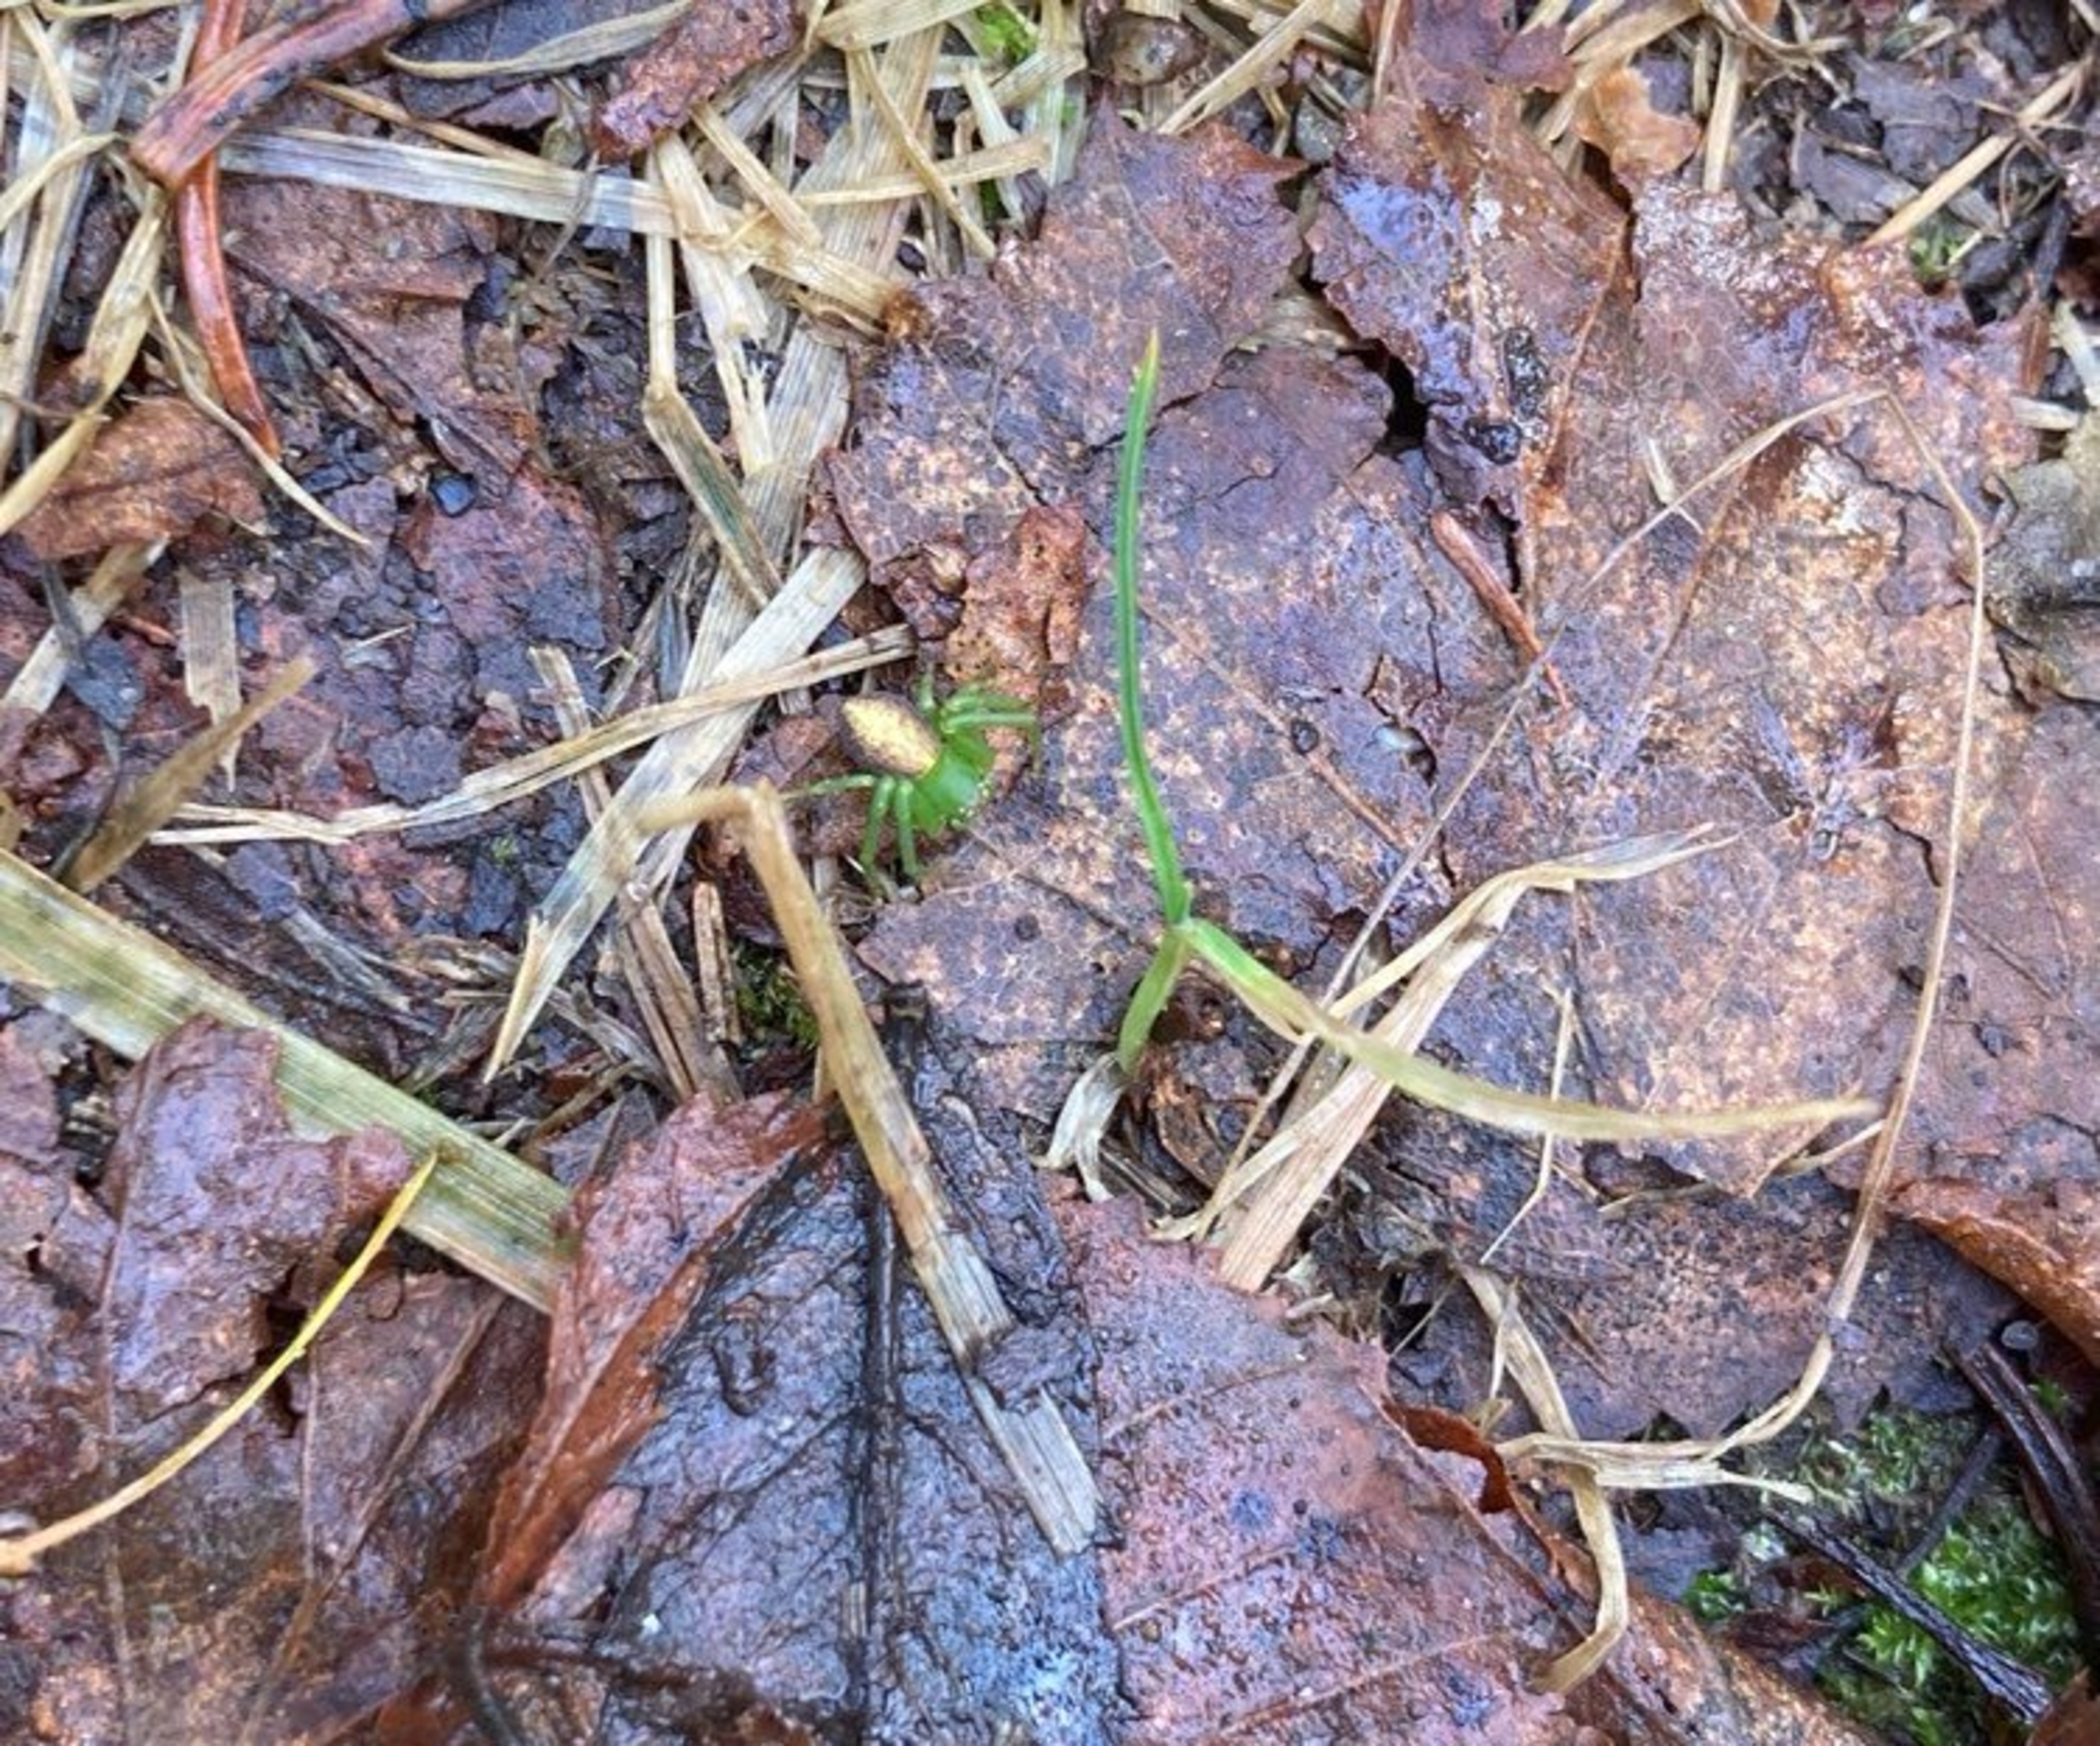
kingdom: Animalia
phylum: Arthropoda
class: Arachnida
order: Araneae
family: Thomisidae
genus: Diaea
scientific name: Diaea dorsata
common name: Grøn krabbeedderkop
